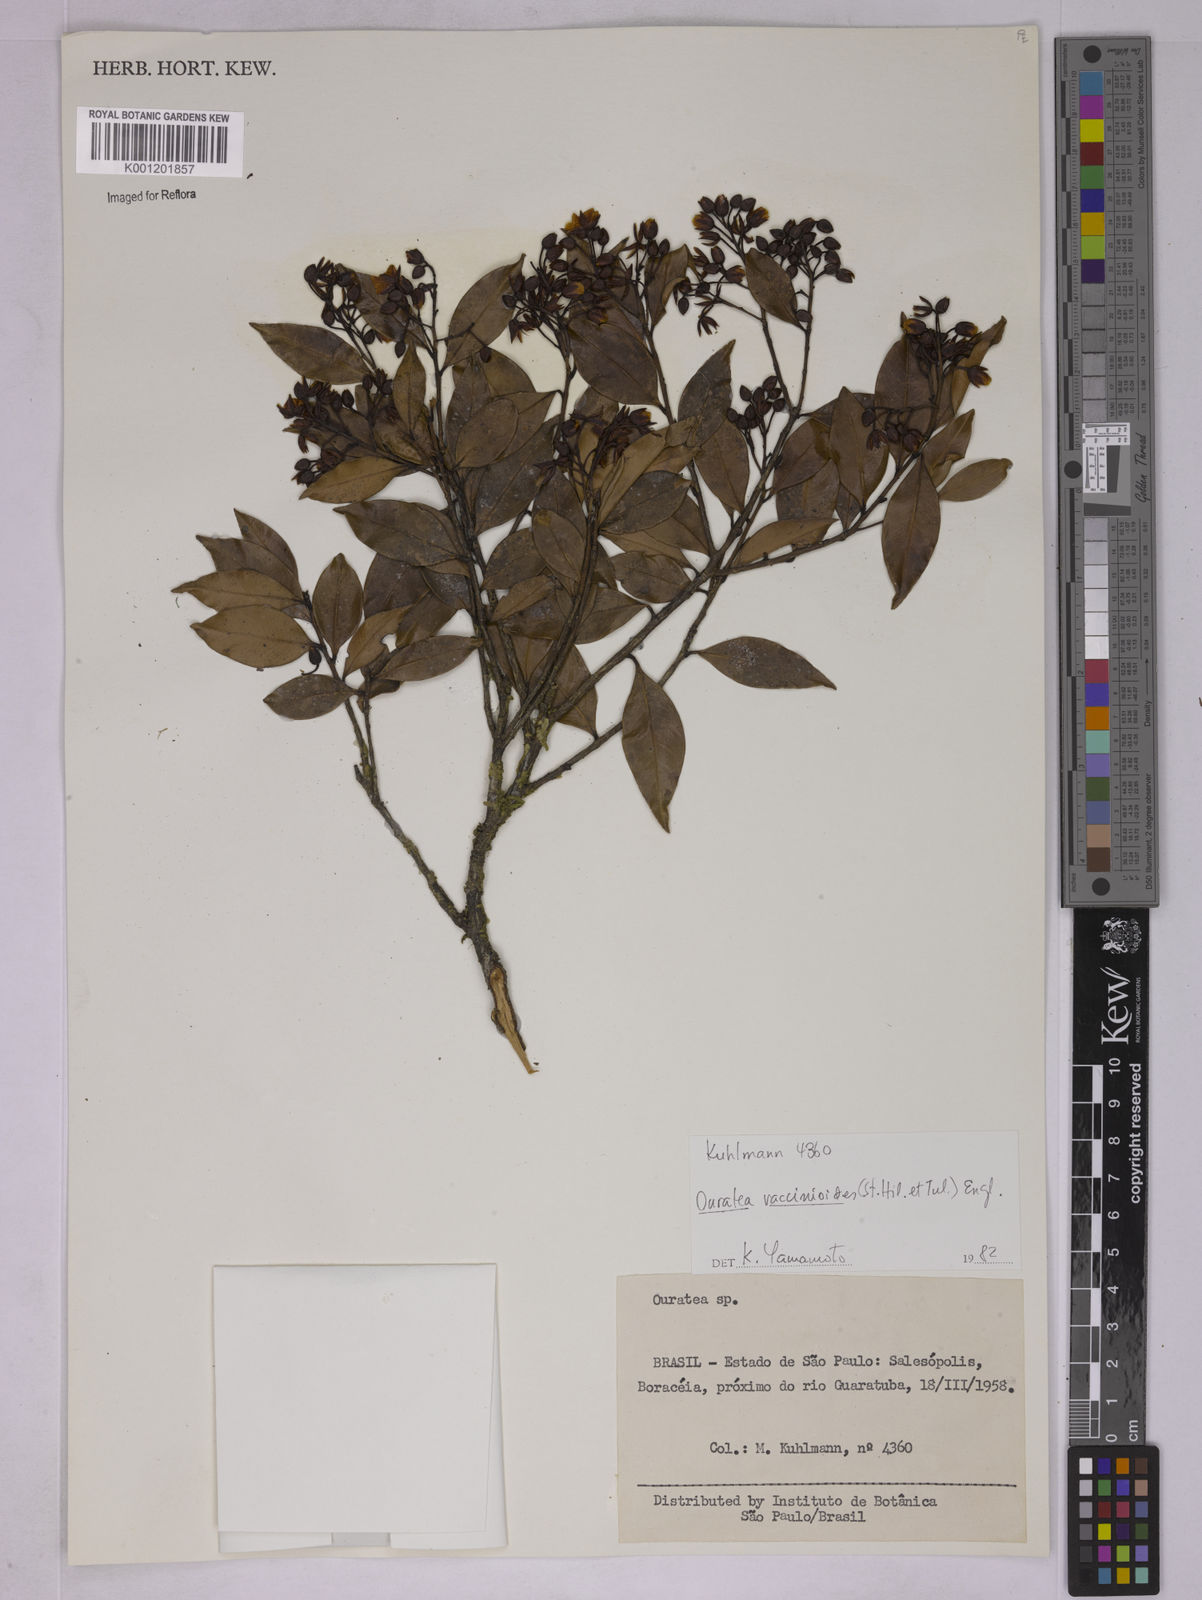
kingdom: Plantae
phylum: Tracheophyta
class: Magnoliopsida
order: Malpighiales
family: Ochnaceae
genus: Ouratea
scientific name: Ouratea vaccinioides
